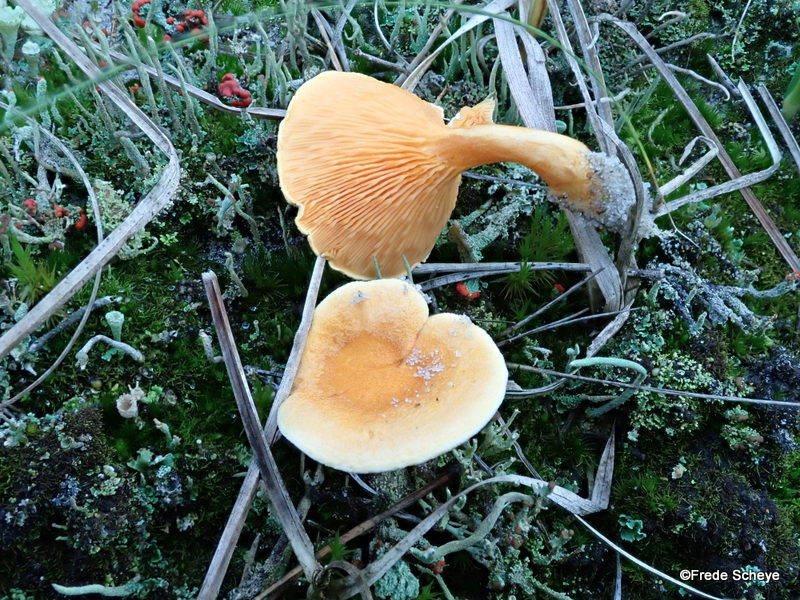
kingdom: Fungi
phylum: Basidiomycota
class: Agaricomycetes
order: Boletales
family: Hygrophoropsidaceae
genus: Hygrophoropsis
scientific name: Hygrophoropsis aurantiaca
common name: almindelig orangekantarel
